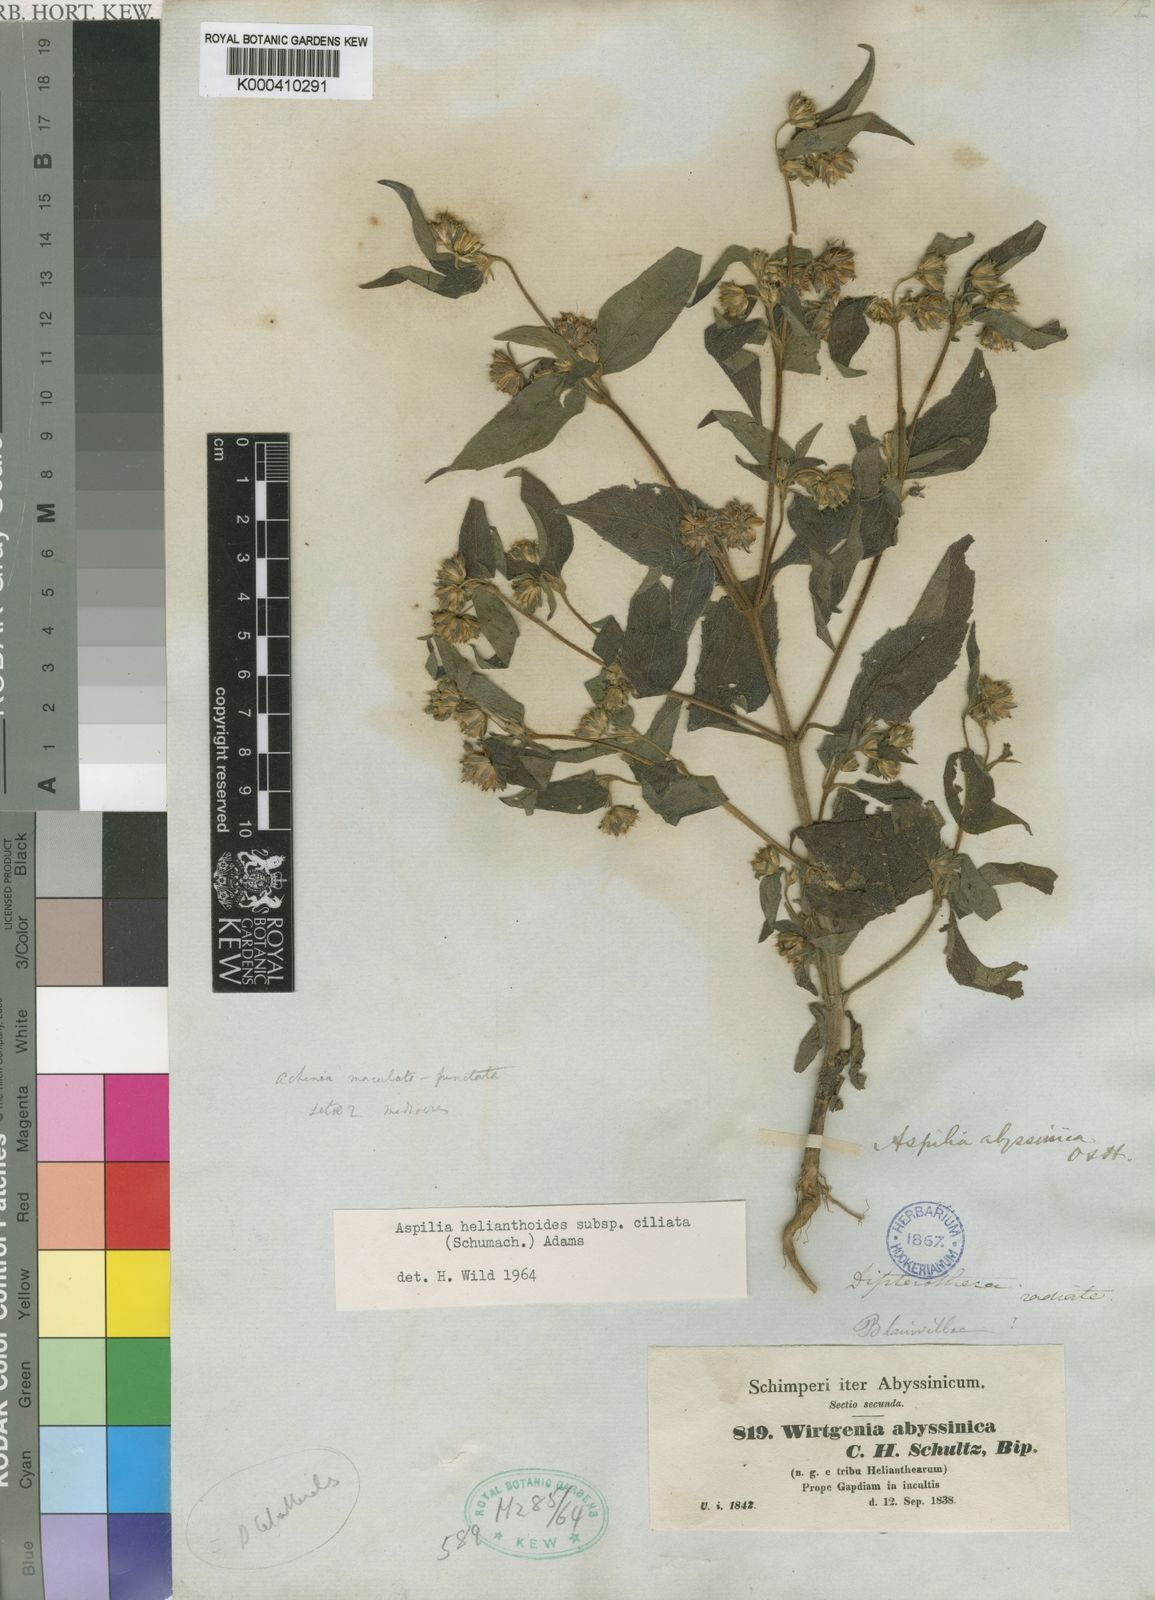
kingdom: Plantae
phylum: Tracheophyta
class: Magnoliopsida
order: Asterales
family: Asteraceae
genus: Aspilia
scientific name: Aspilia ciliata
